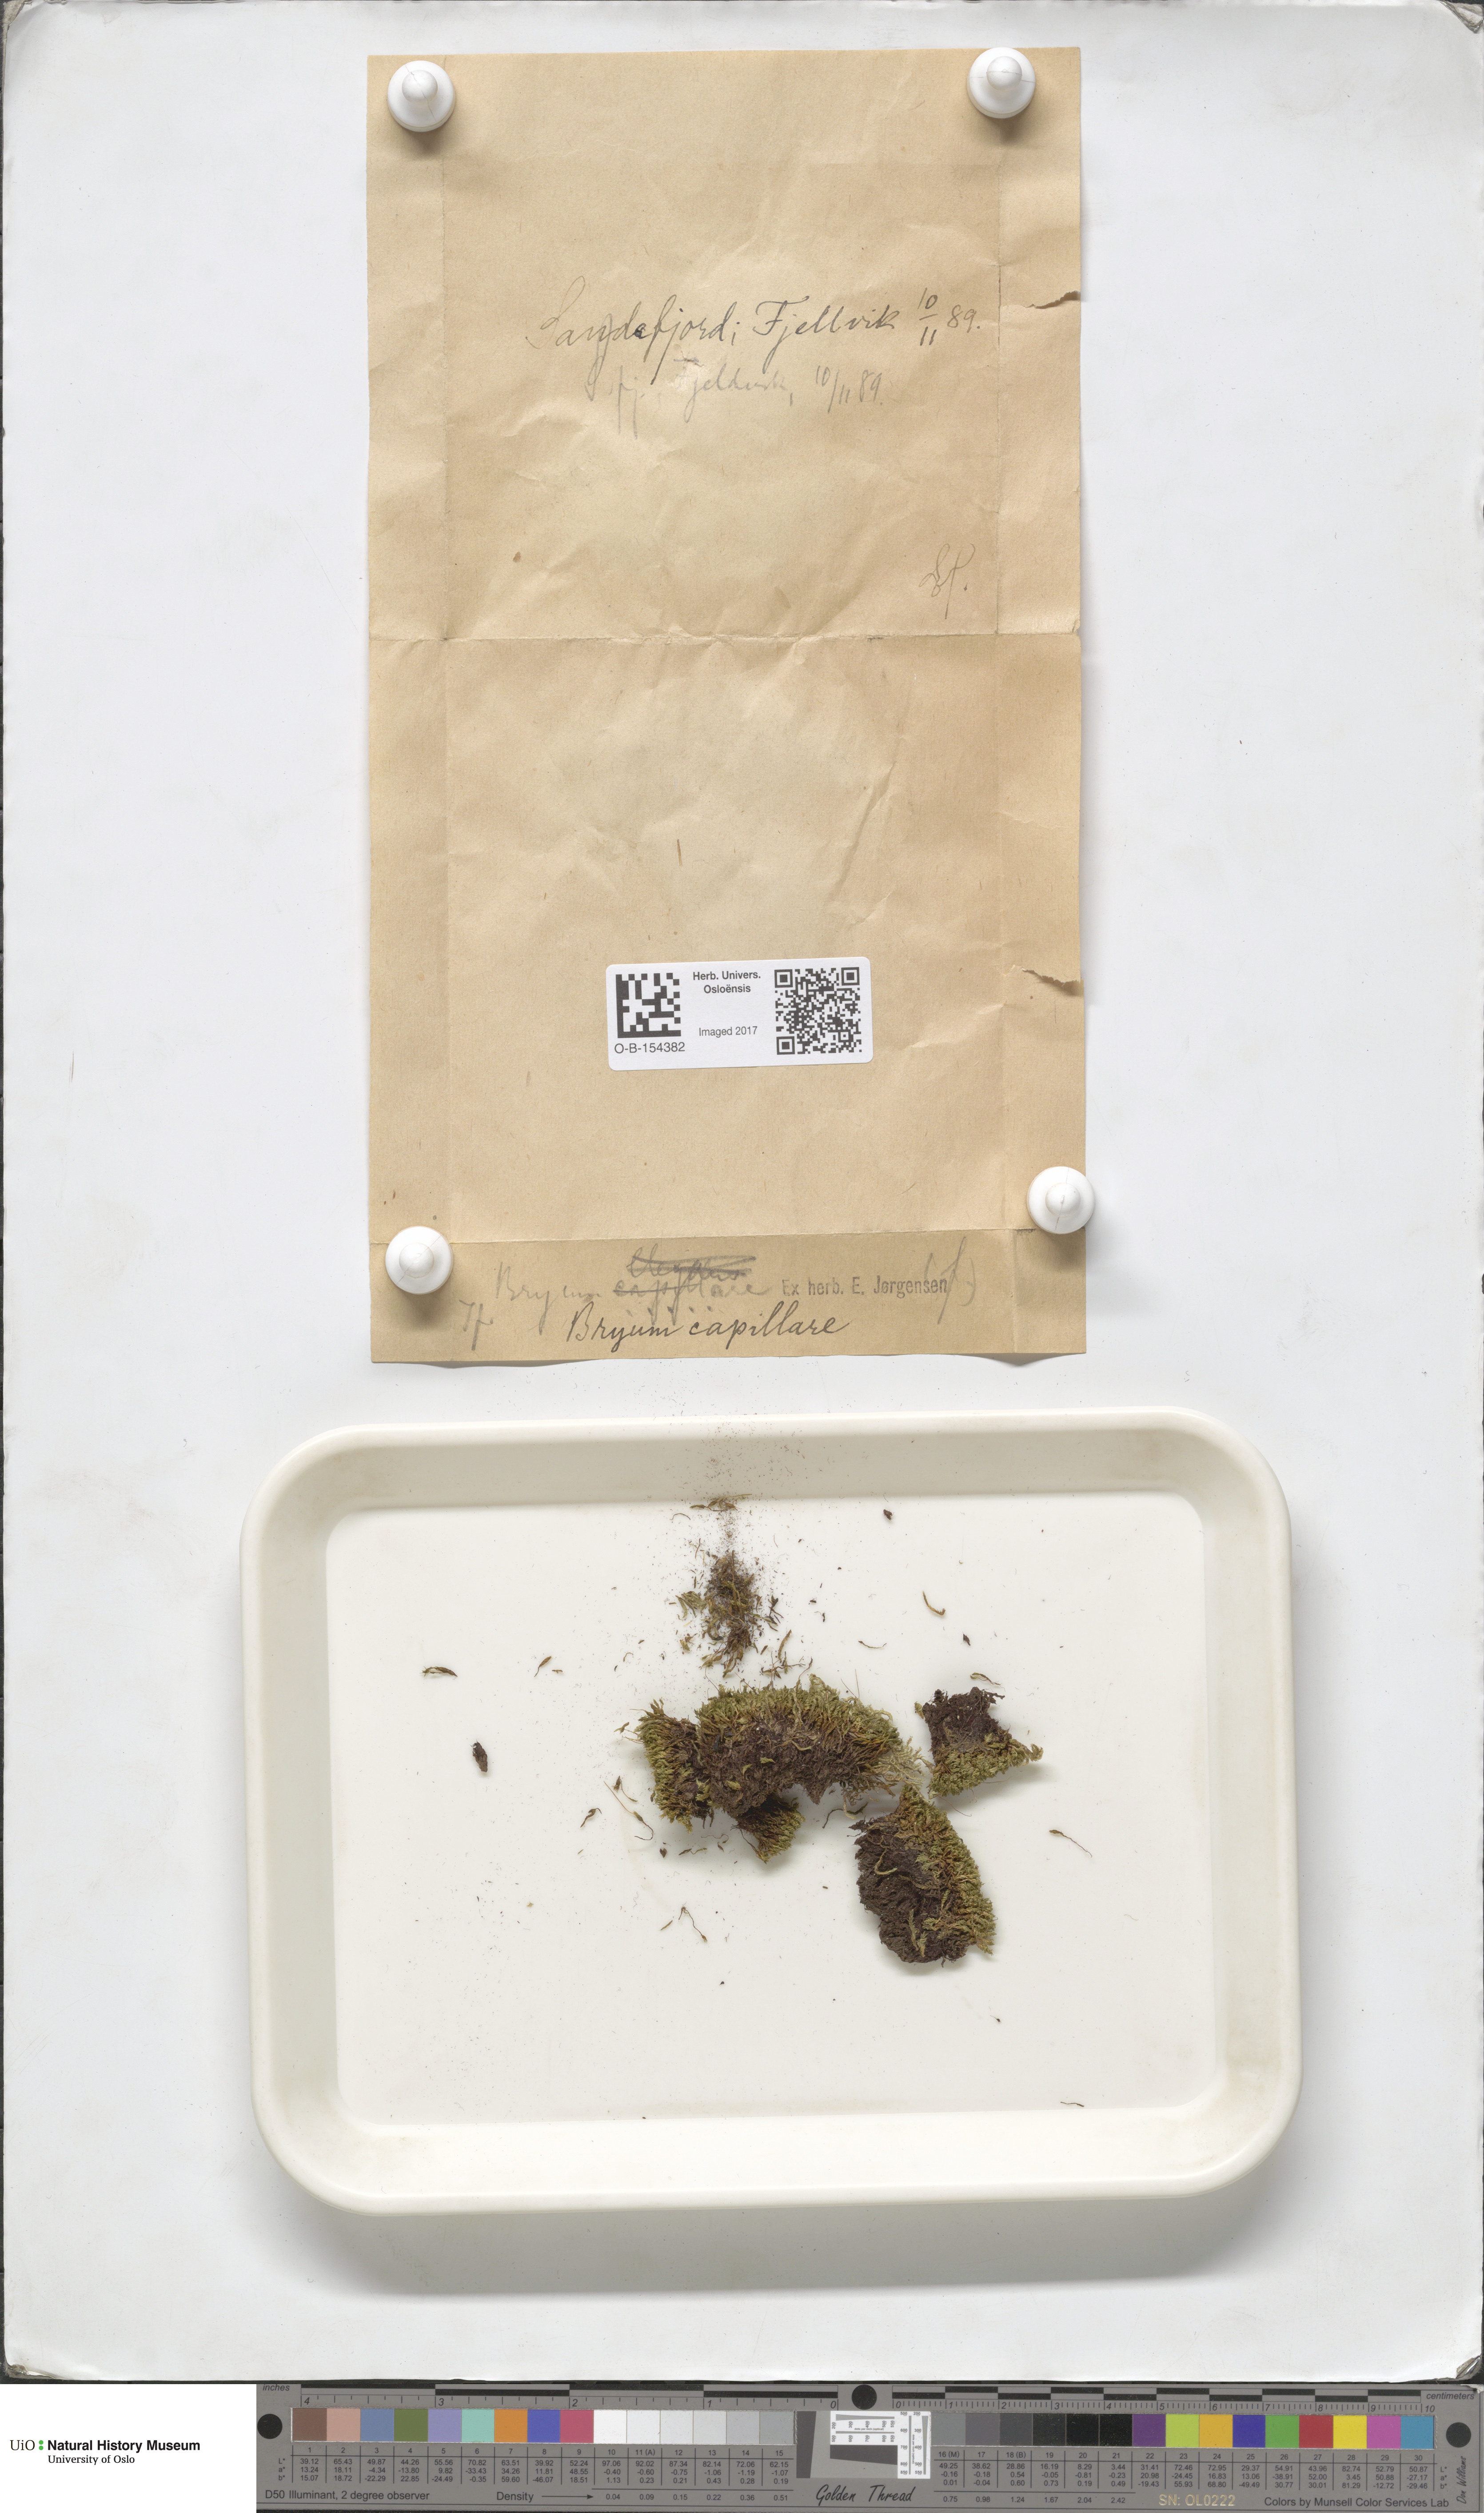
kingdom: Plantae
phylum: Bryophyta
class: Bryopsida
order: Bryales
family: Bryaceae
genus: Rosulabryum
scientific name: Rosulabryum capillare
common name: Capillary thread-moss
